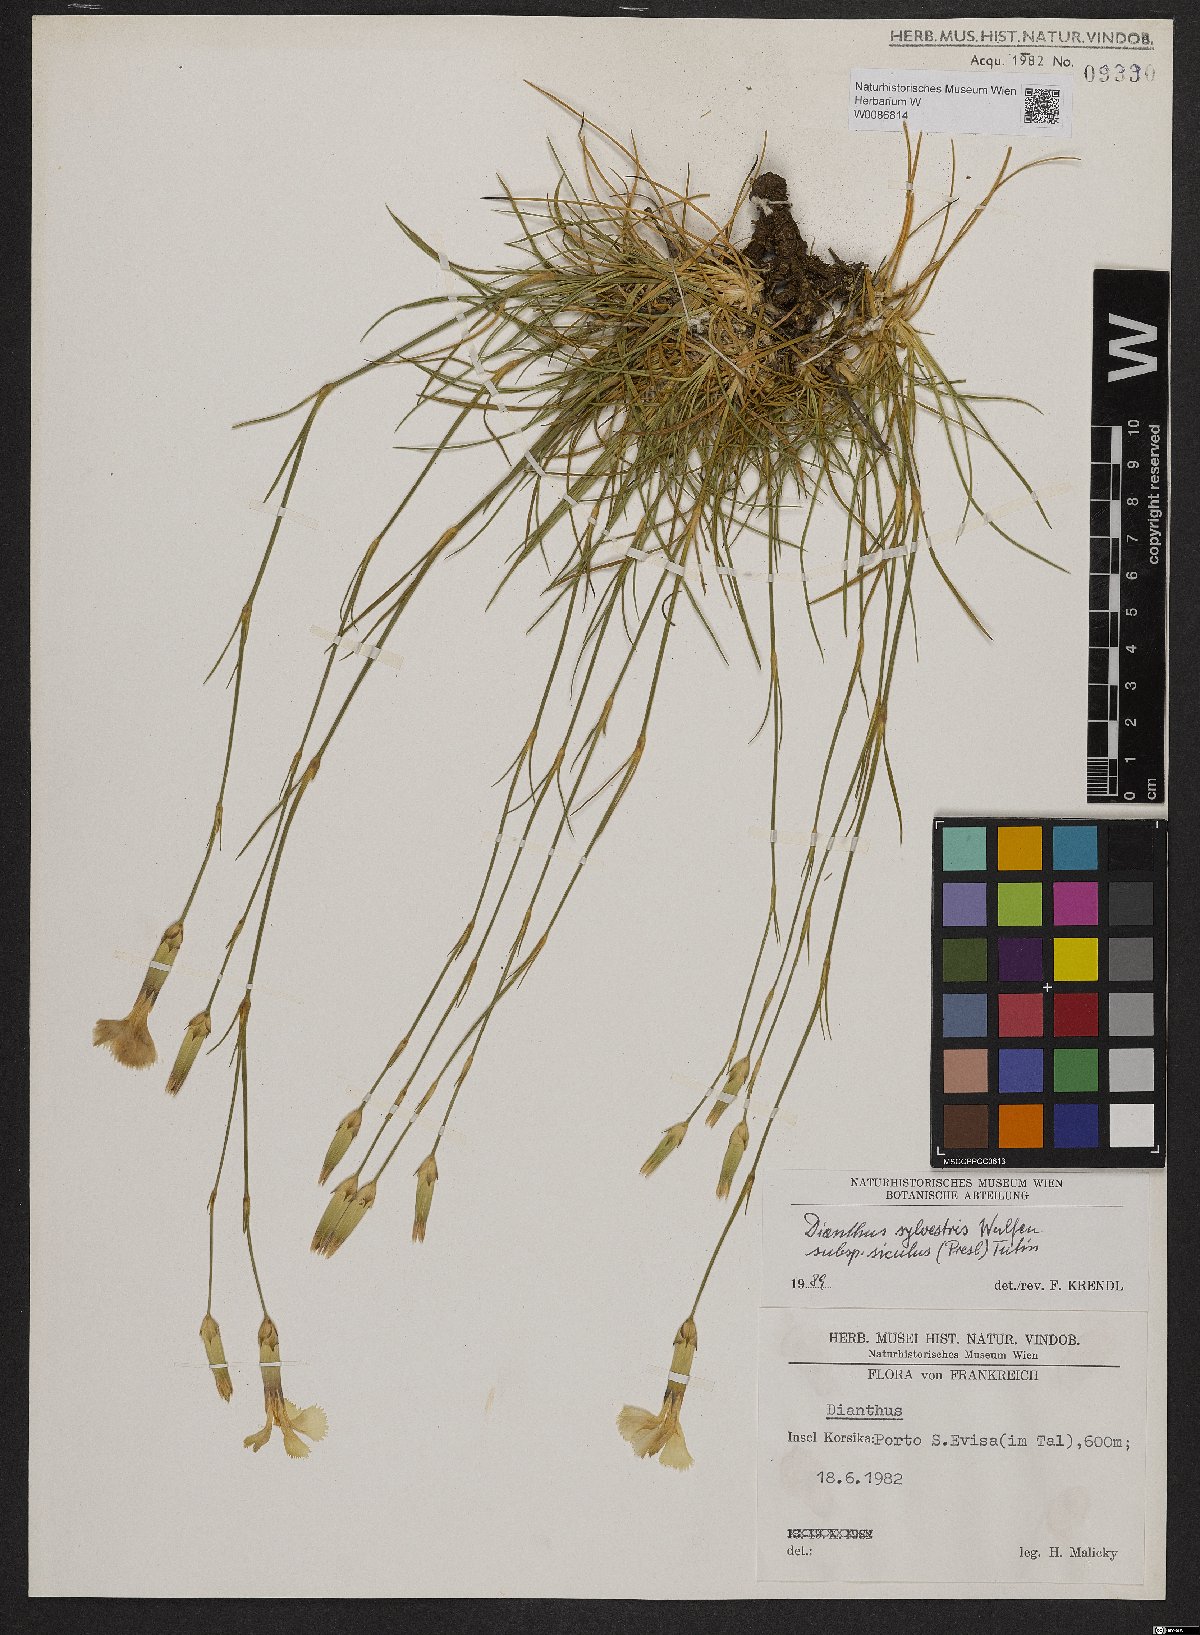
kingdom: Plantae
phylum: Tracheophyta
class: Magnoliopsida
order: Caryophyllales
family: Caryophyllaceae
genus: Dianthus
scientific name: Dianthus siculus
